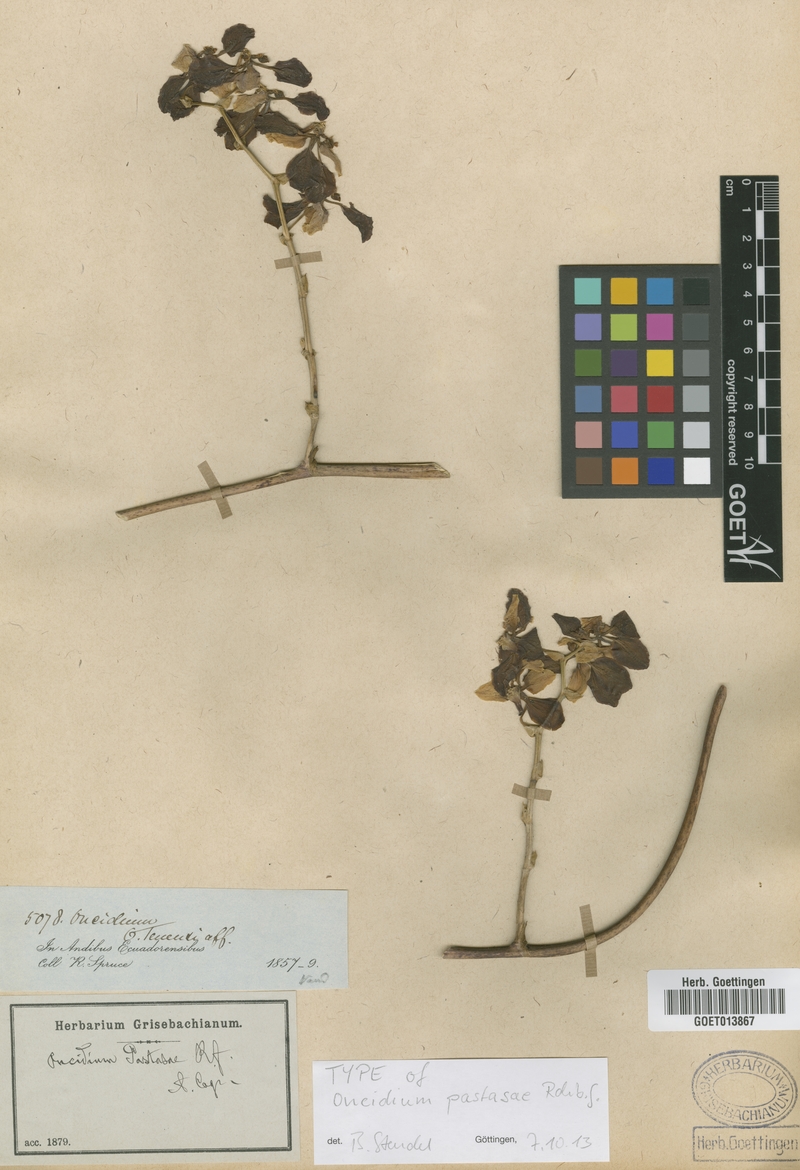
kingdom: Plantae
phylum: Tracheophyta
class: Liliopsida
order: Asparagales
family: Orchidaceae
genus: Cyrtochilum
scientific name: Cyrtochilum pastasae
